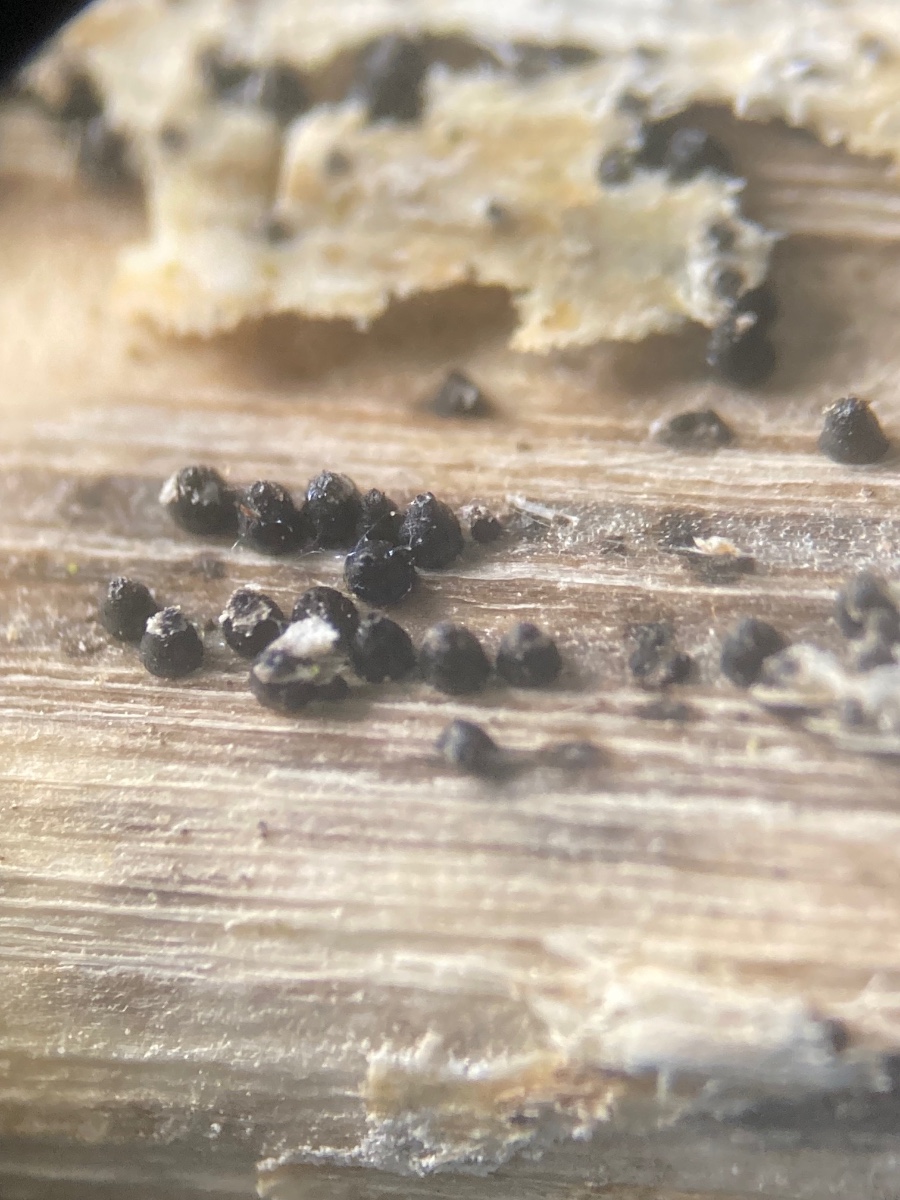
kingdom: Fungi
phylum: Ascomycota
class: Dothideomycetes
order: Pleosporales
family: Leptosphaeriaceae
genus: Leptosphaeria
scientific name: Leptosphaeria acuta
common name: spids kulkegle
